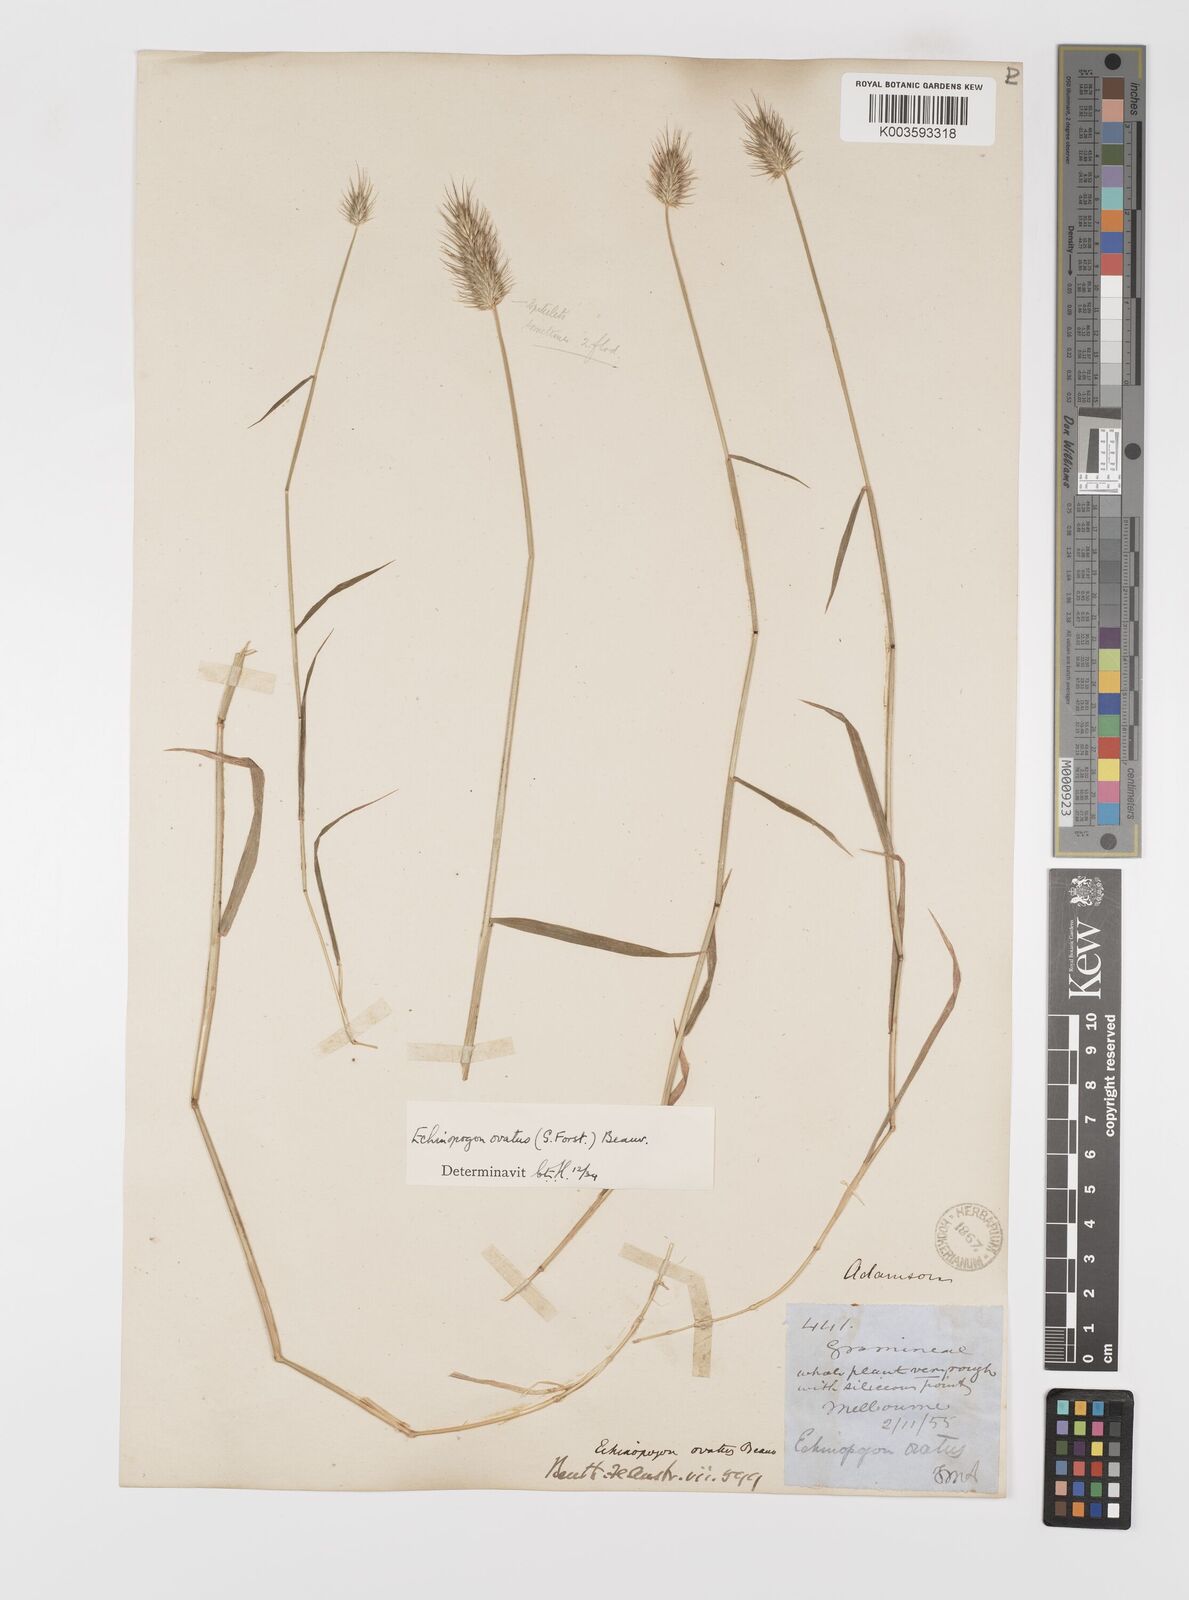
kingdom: Plantae
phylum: Tracheophyta
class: Liliopsida
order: Poales
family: Poaceae
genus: Echinopogon
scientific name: Echinopogon ovatus
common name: Hedgehog-grass
